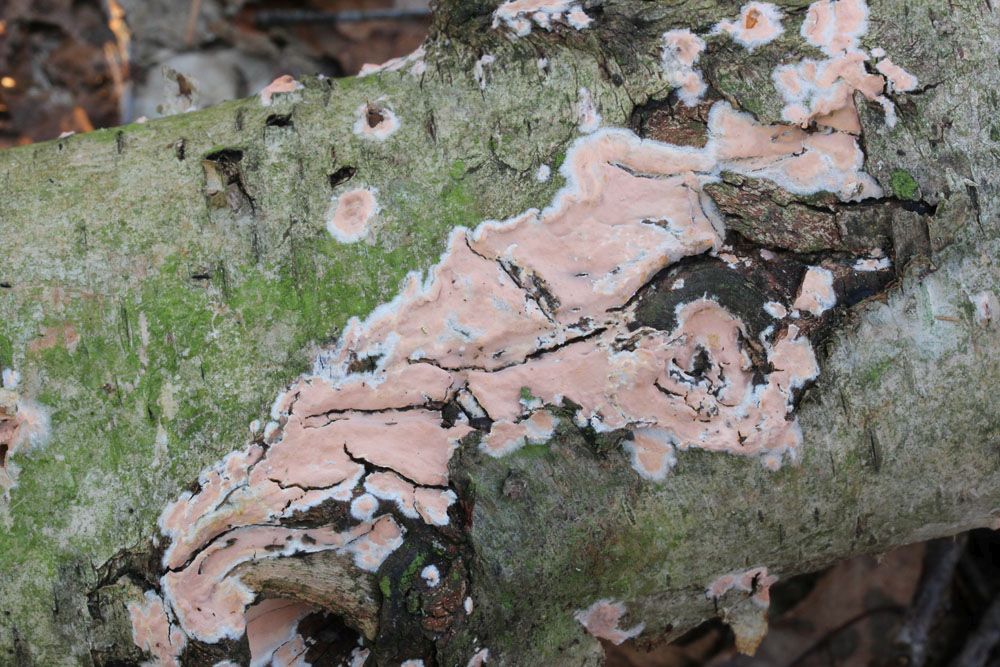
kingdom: Fungi
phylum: Basidiomycota
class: Agaricomycetes
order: Russulales
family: Peniophoraceae
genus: Peniophora
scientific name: Peniophora incarnata
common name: laksefarvet voksskind
